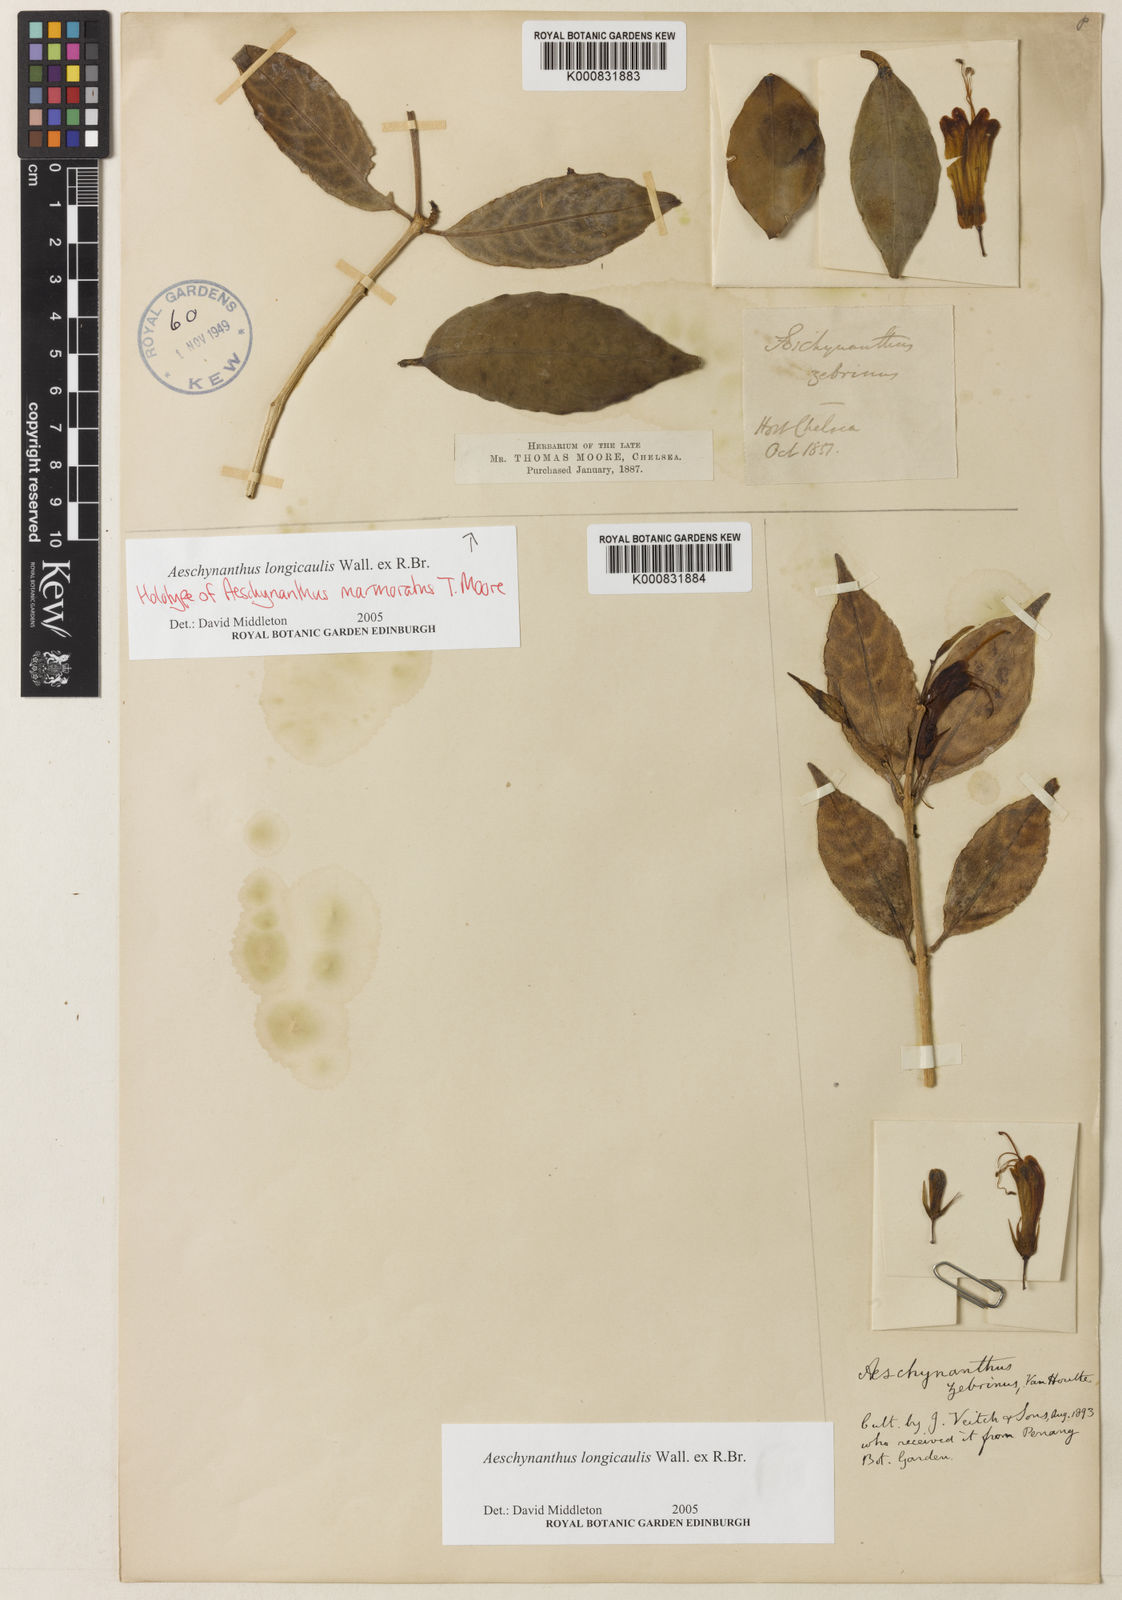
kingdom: Plantae
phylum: Tracheophyta
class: Magnoliopsida
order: Lamiales
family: Gesneriaceae
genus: Aeschynanthus
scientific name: Aeschynanthus longicaulis
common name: Zebra basketvine
